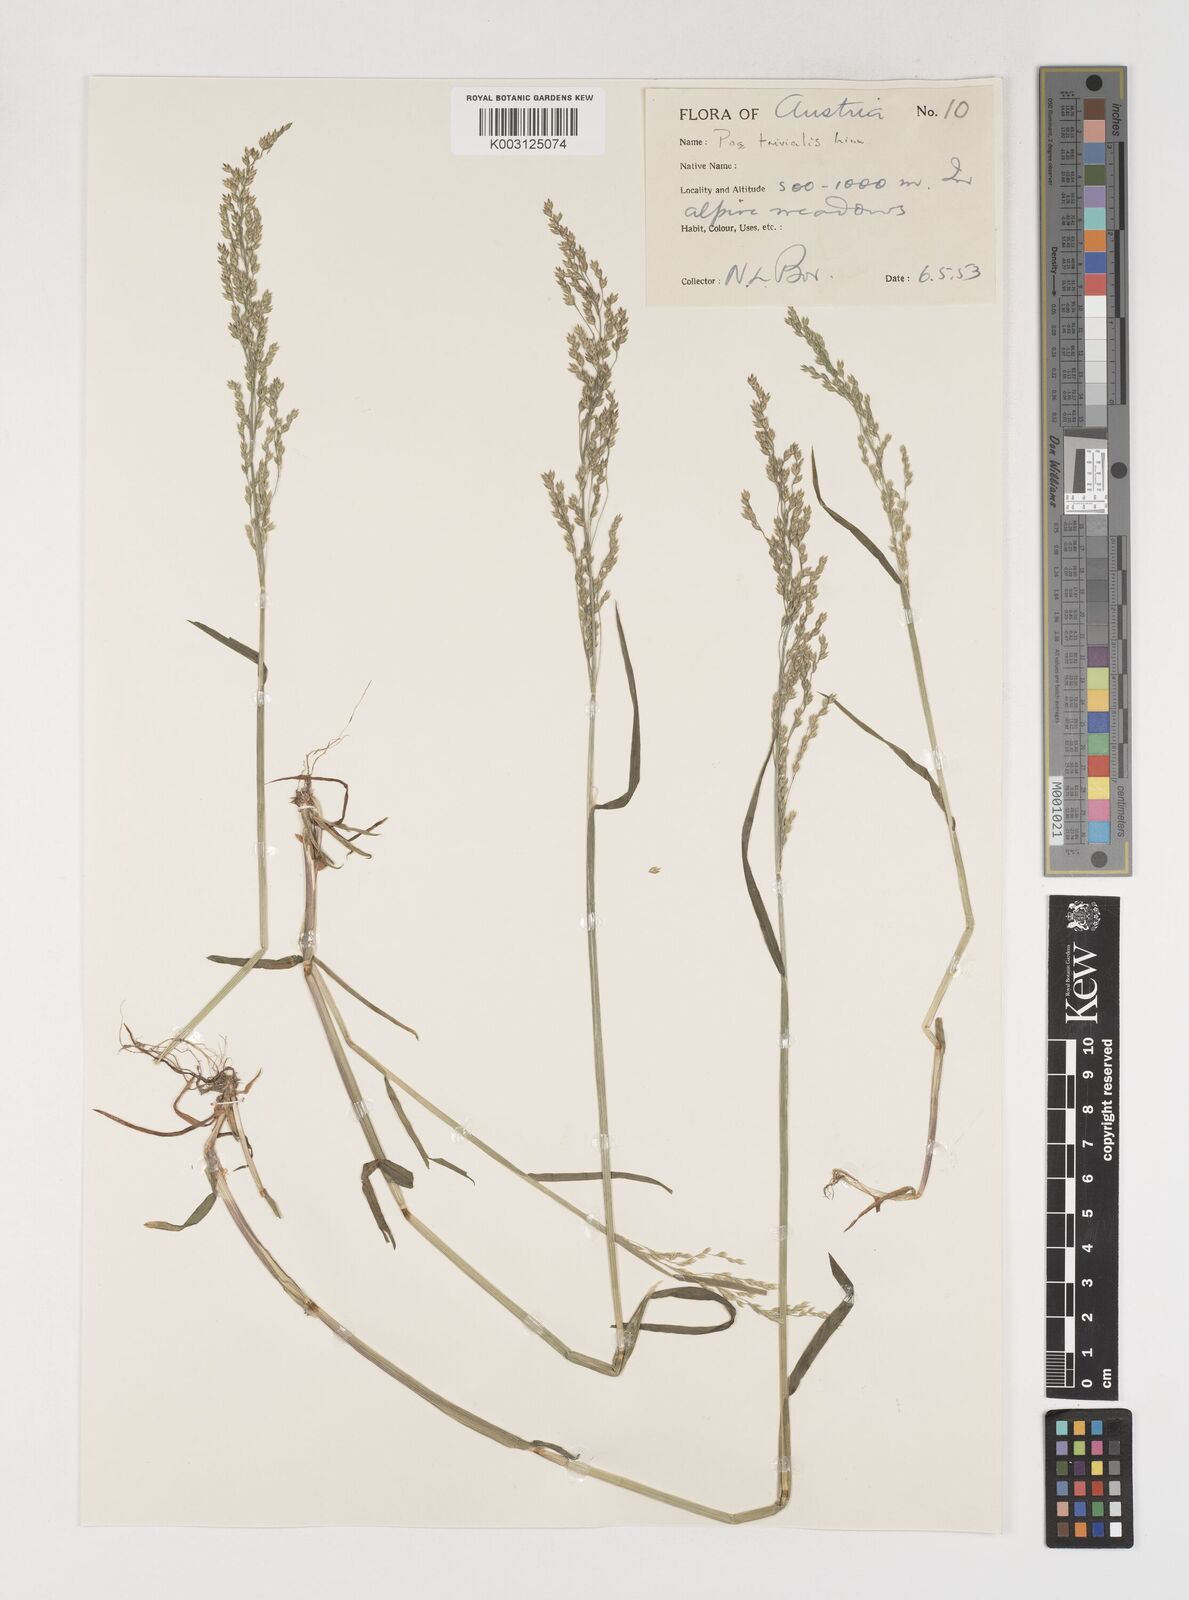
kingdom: Plantae
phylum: Tracheophyta
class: Liliopsida
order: Poales
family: Poaceae
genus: Poa
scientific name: Poa trivialis
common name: Rough bluegrass
